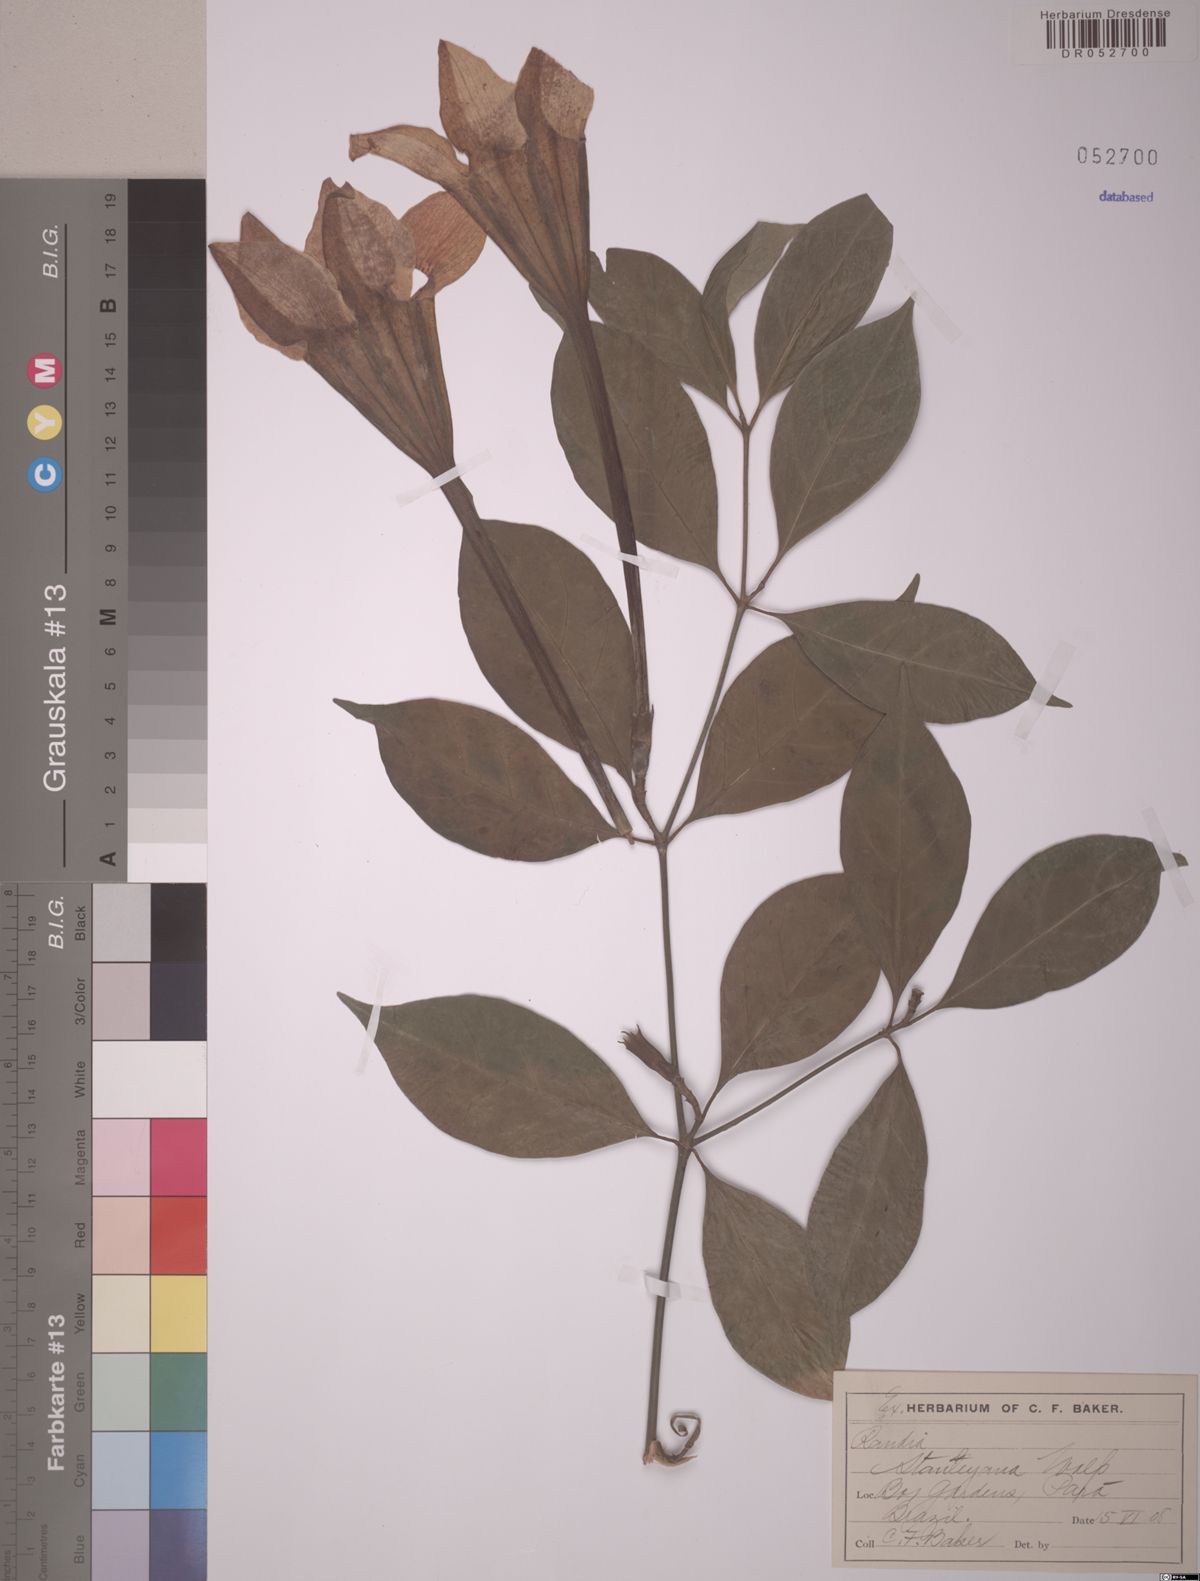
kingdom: Plantae
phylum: Tracheophyta
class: Magnoliopsida
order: Gentianales
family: Rubiaceae
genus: Rothmannia
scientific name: Rothmannia longiflora
